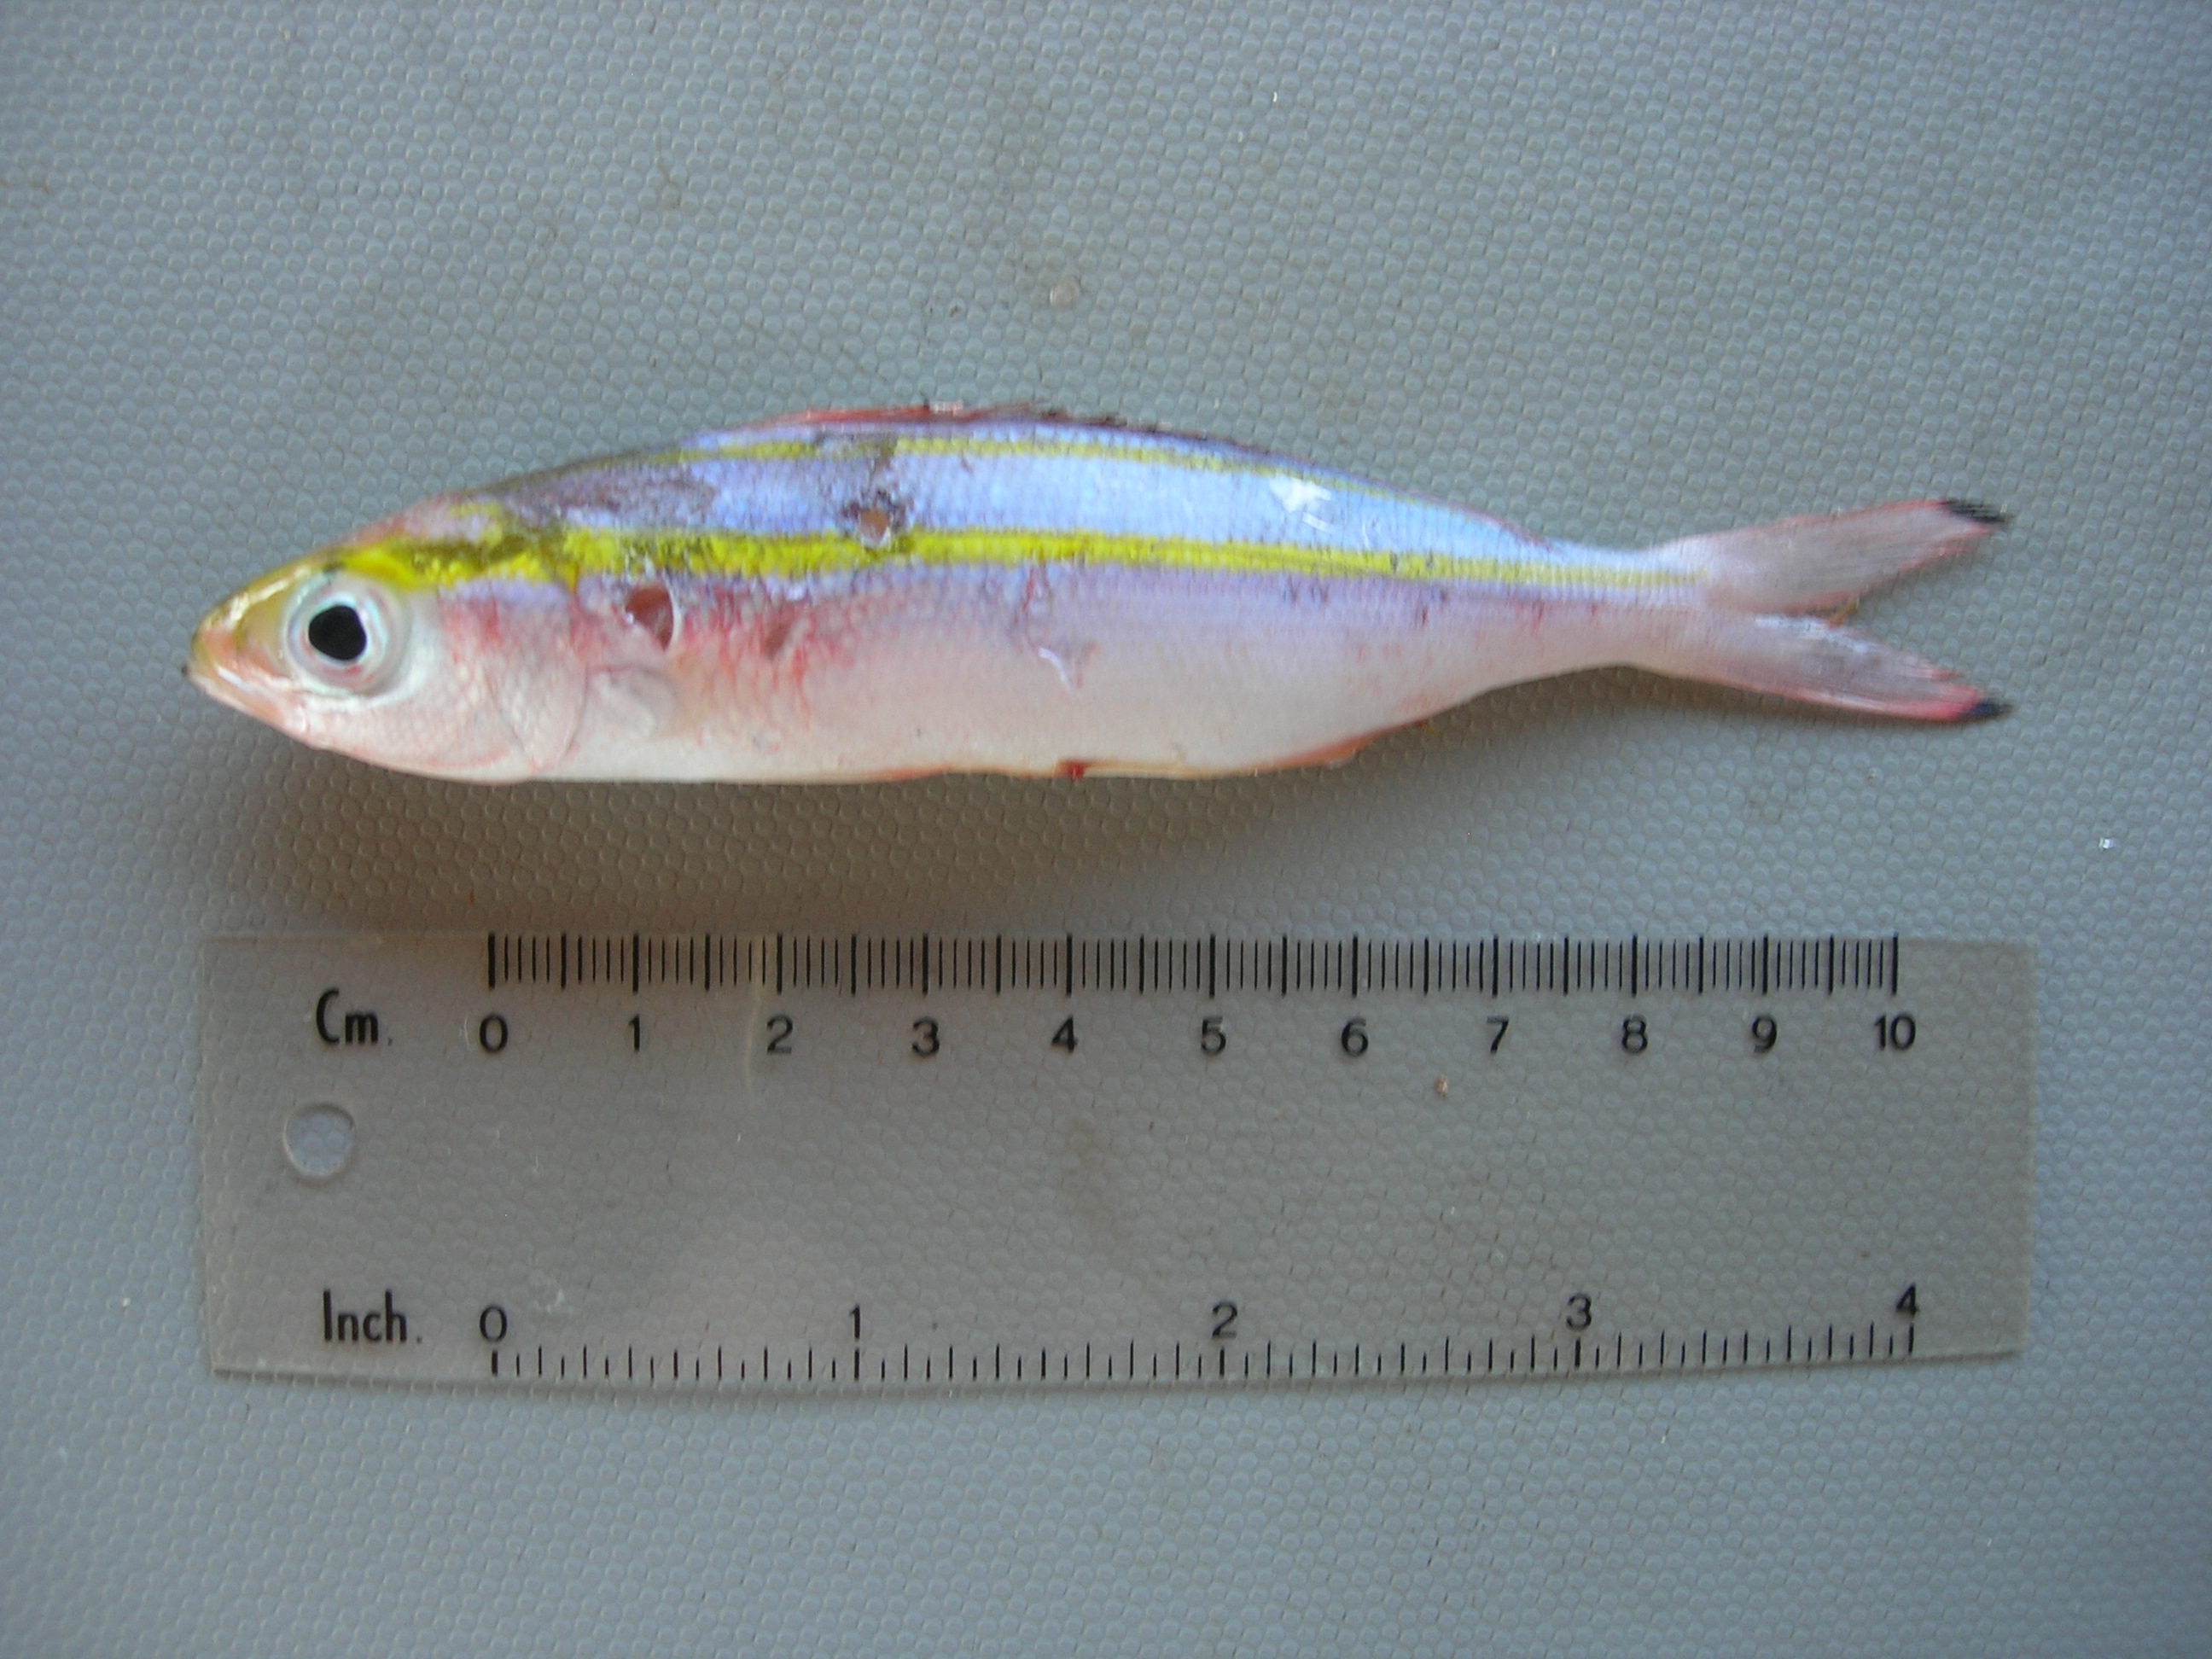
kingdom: Animalia
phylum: Chordata
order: Perciformes
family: Caesionidae
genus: Pterocaesio
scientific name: Pterocaesio chrysozona
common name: Goldband fusilier
